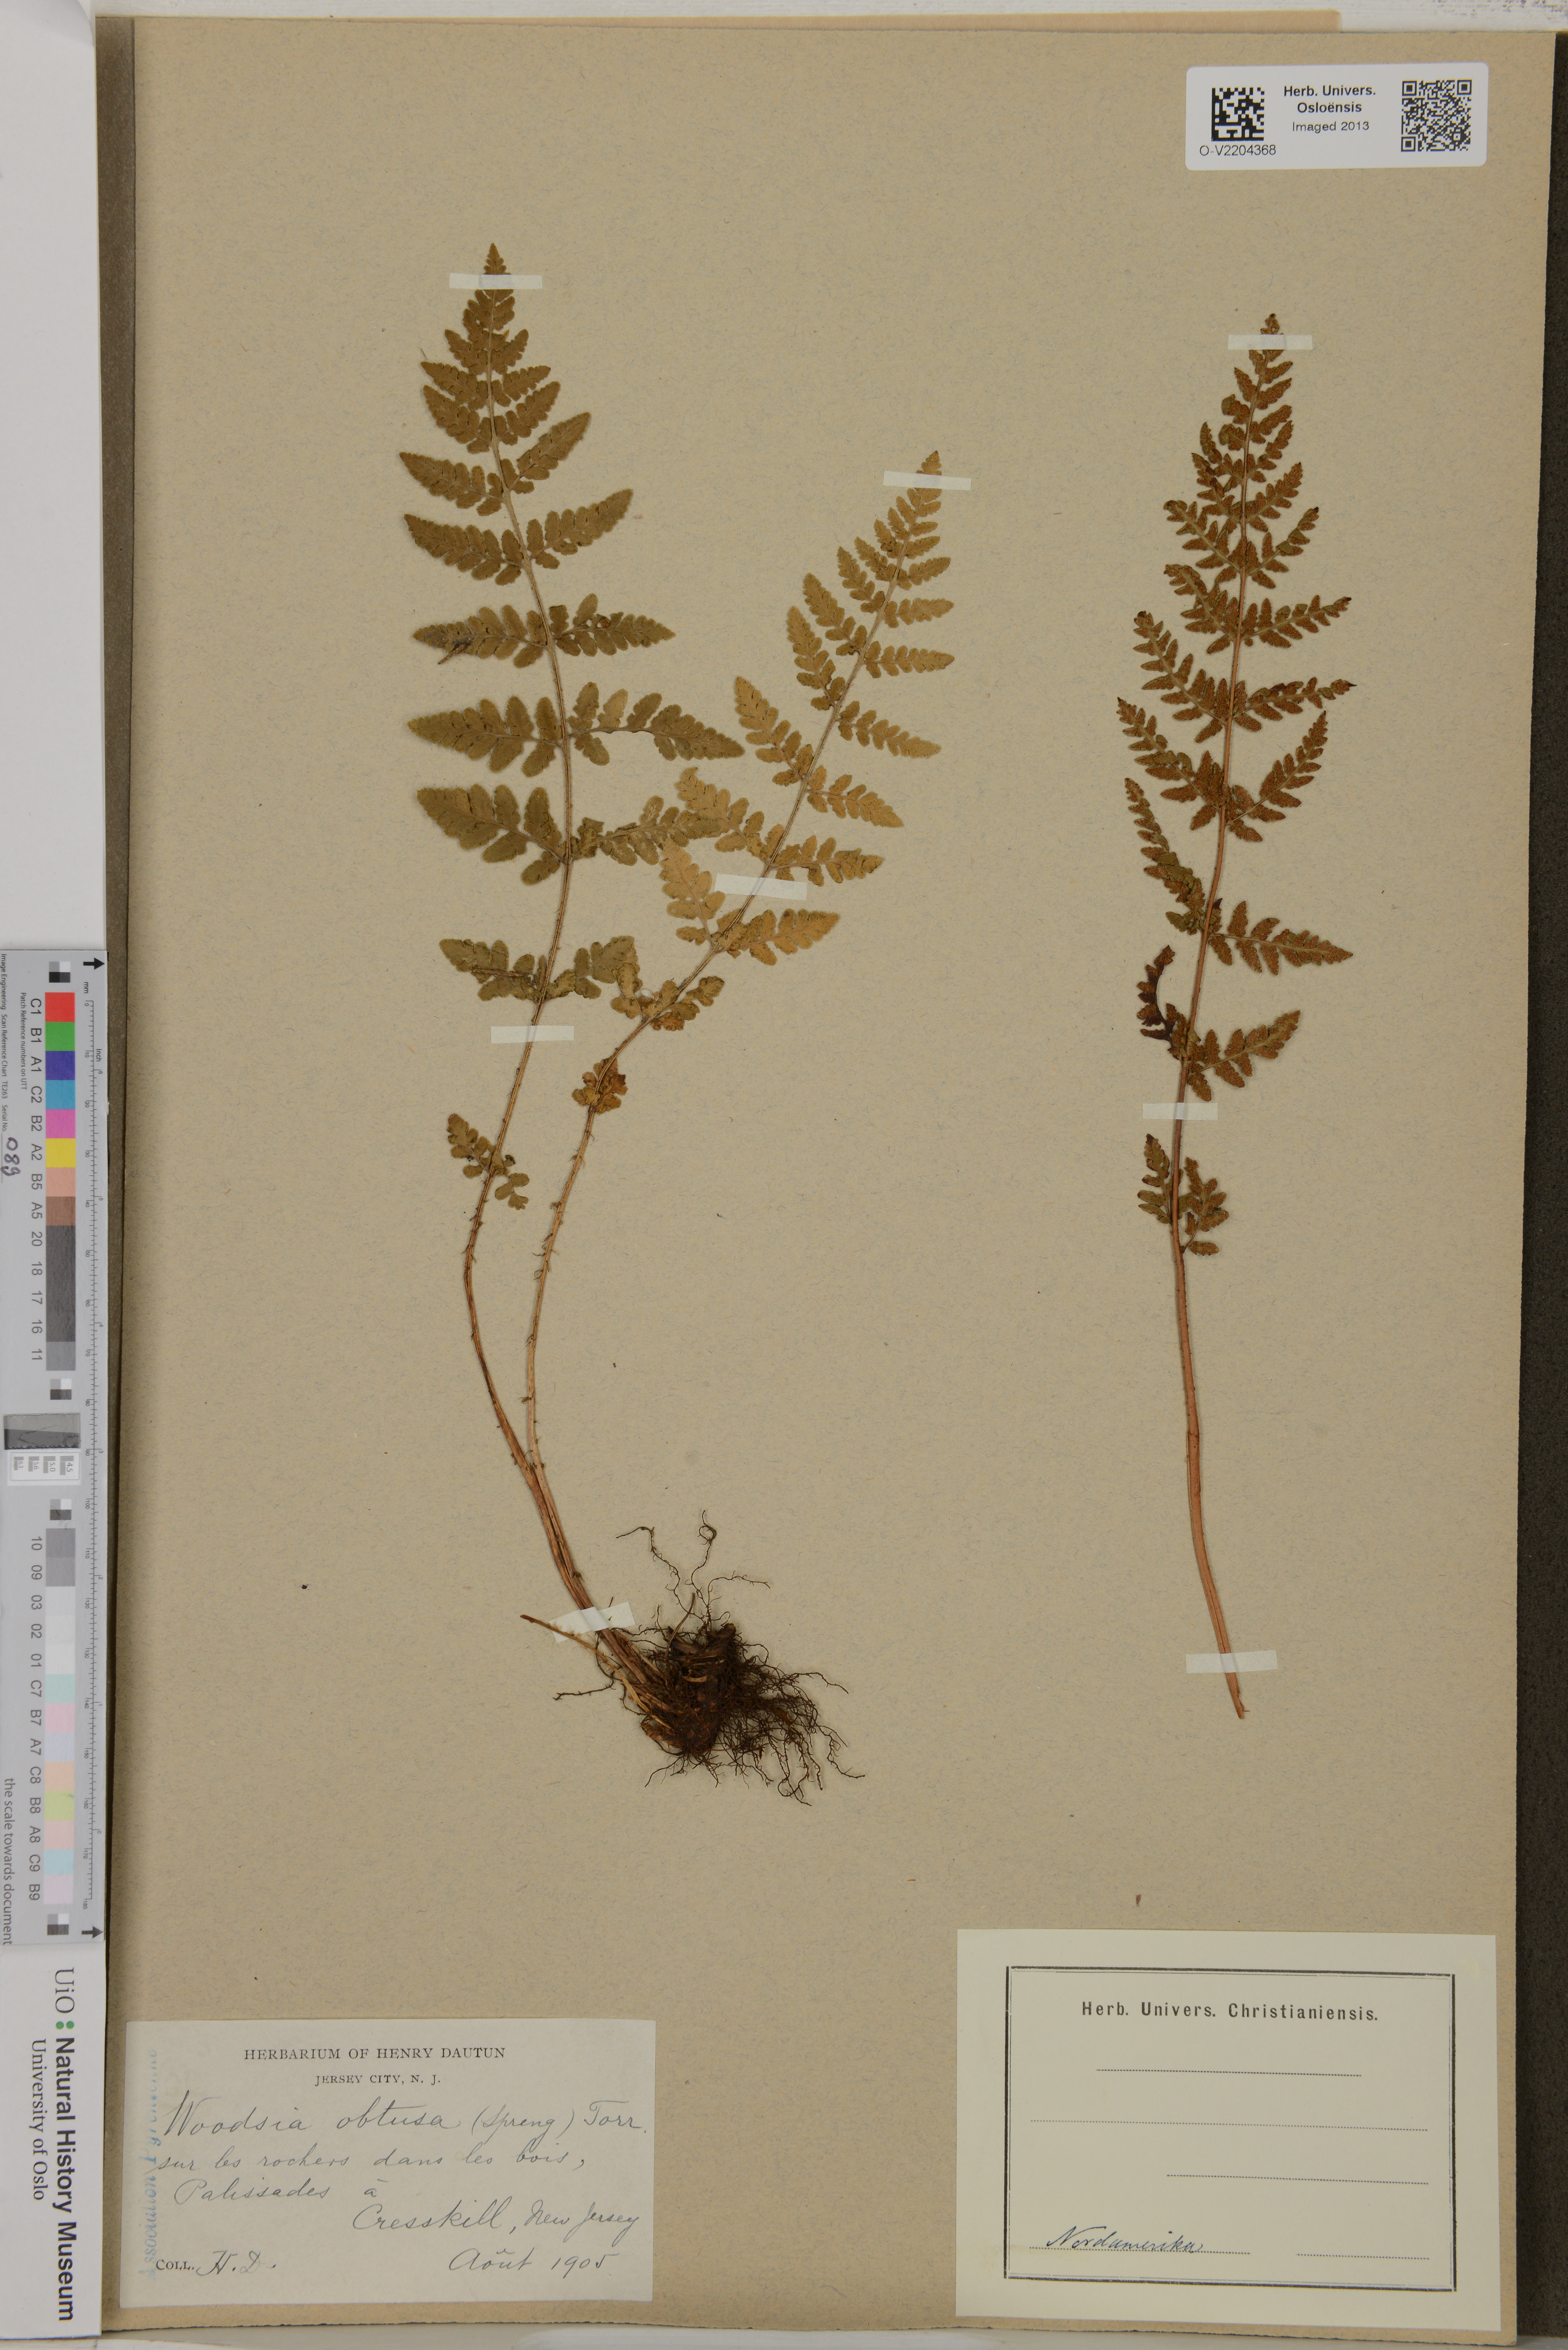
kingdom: Plantae
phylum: Tracheophyta
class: Polypodiopsida
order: Polypodiales
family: Woodsiaceae
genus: Physematium
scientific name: Physematium obtusum
